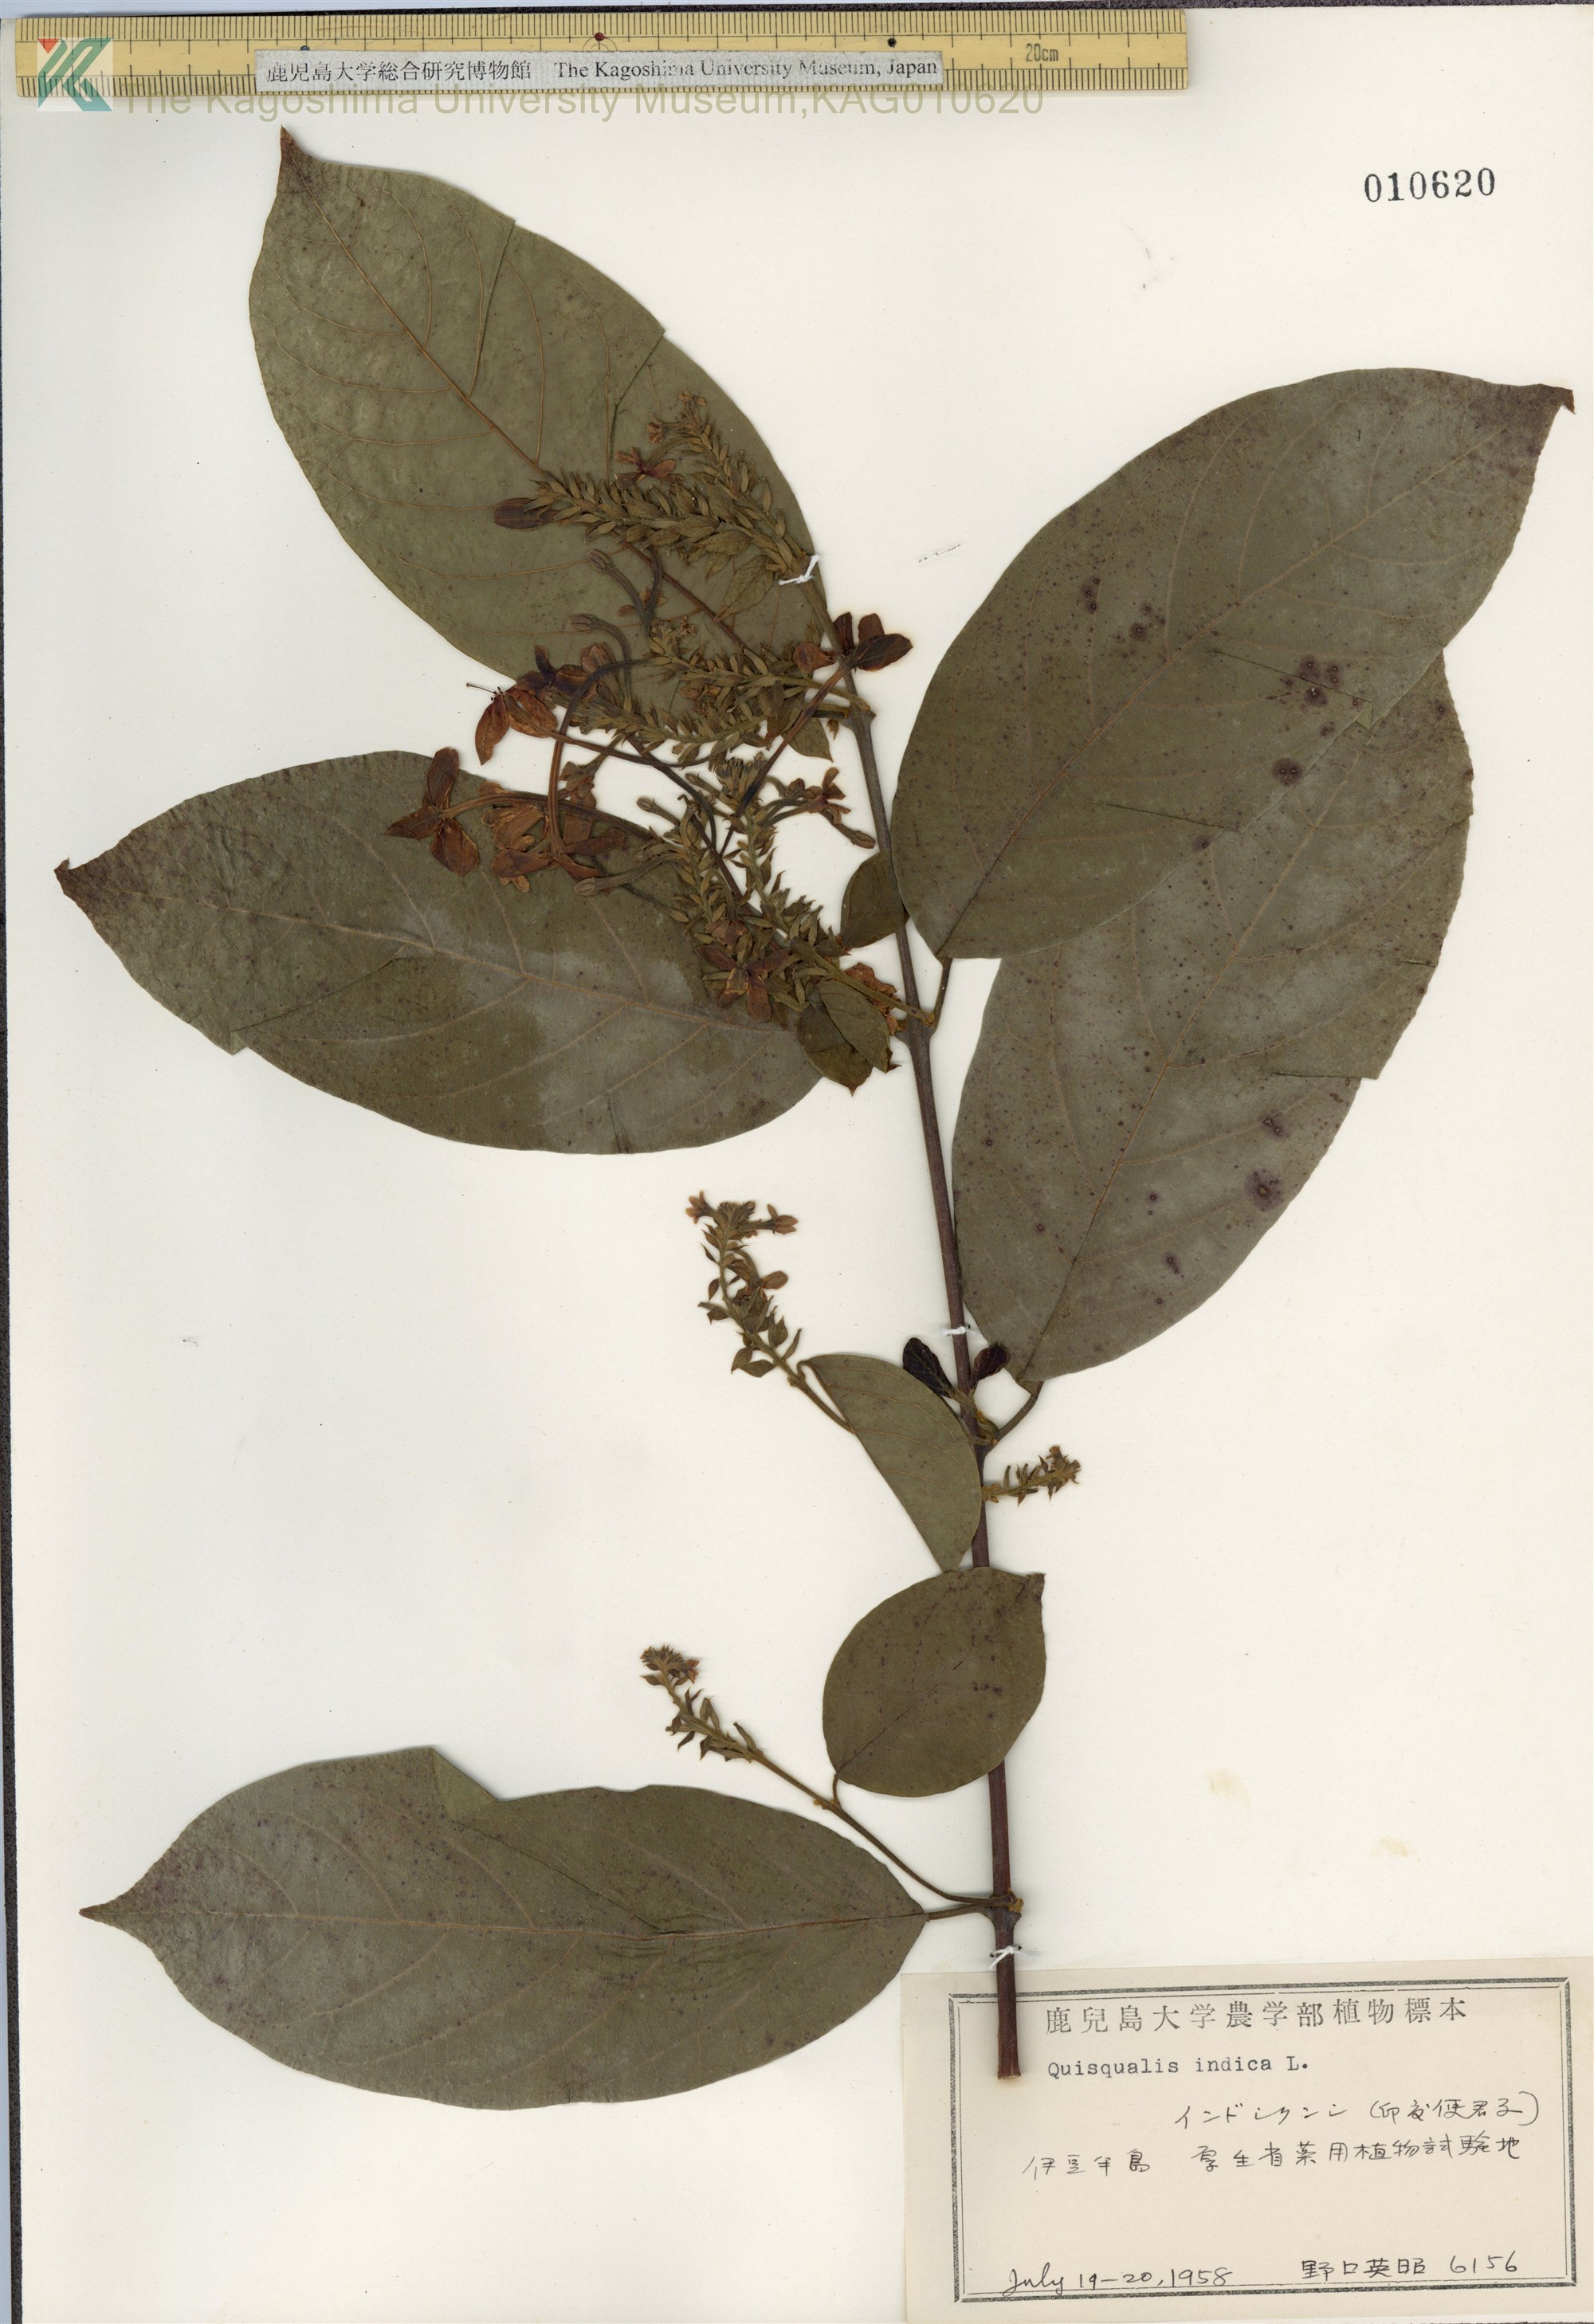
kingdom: Plantae
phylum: Tracheophyta
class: Magnoliopsida
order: Myrtales
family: Combretaceae
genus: Combretum
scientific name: Combretum indicum
